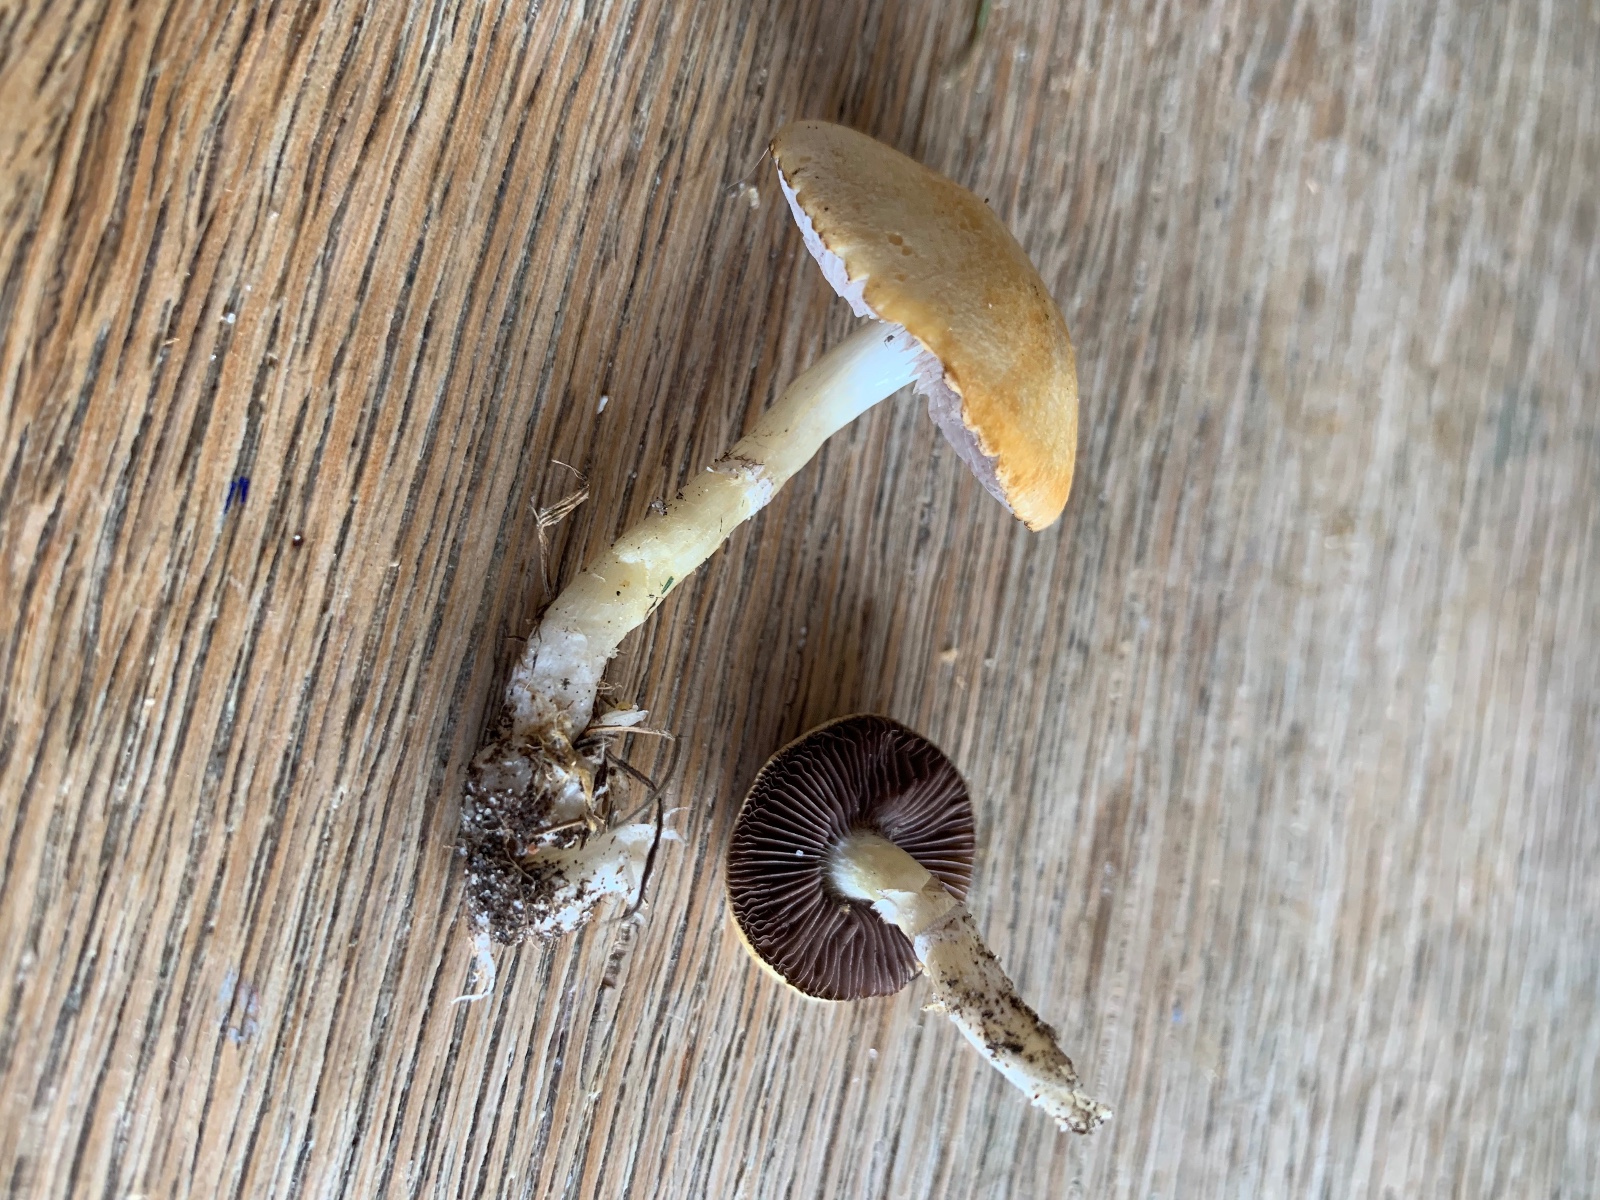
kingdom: Fungi
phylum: Basidiomycota
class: Agaricomycetes
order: Agaricales
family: Hymenogastraceae
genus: Psilocybe
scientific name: Psilocybe coronilla
